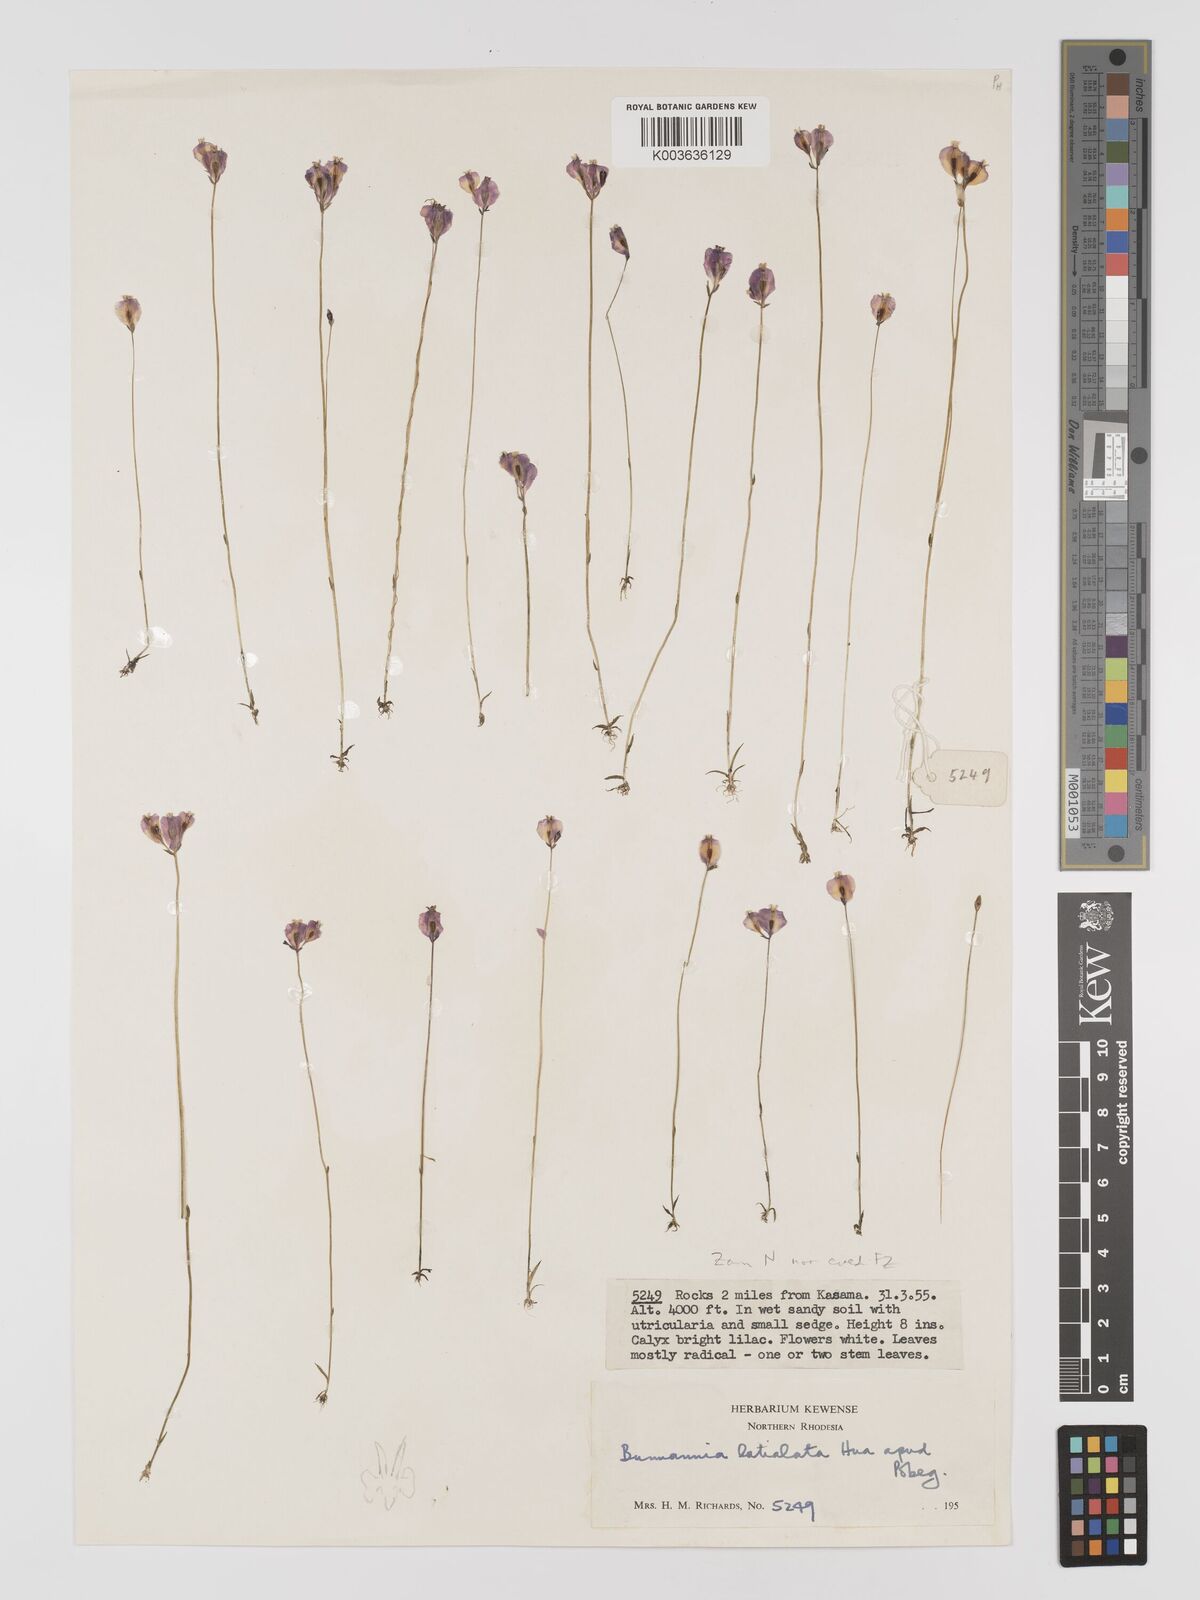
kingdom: Plantae
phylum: Tracheophyta
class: Liliopsida
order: Dioscoreales
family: Burmanniaceae
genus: Burmannia
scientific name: Burmannia madagascariensis
